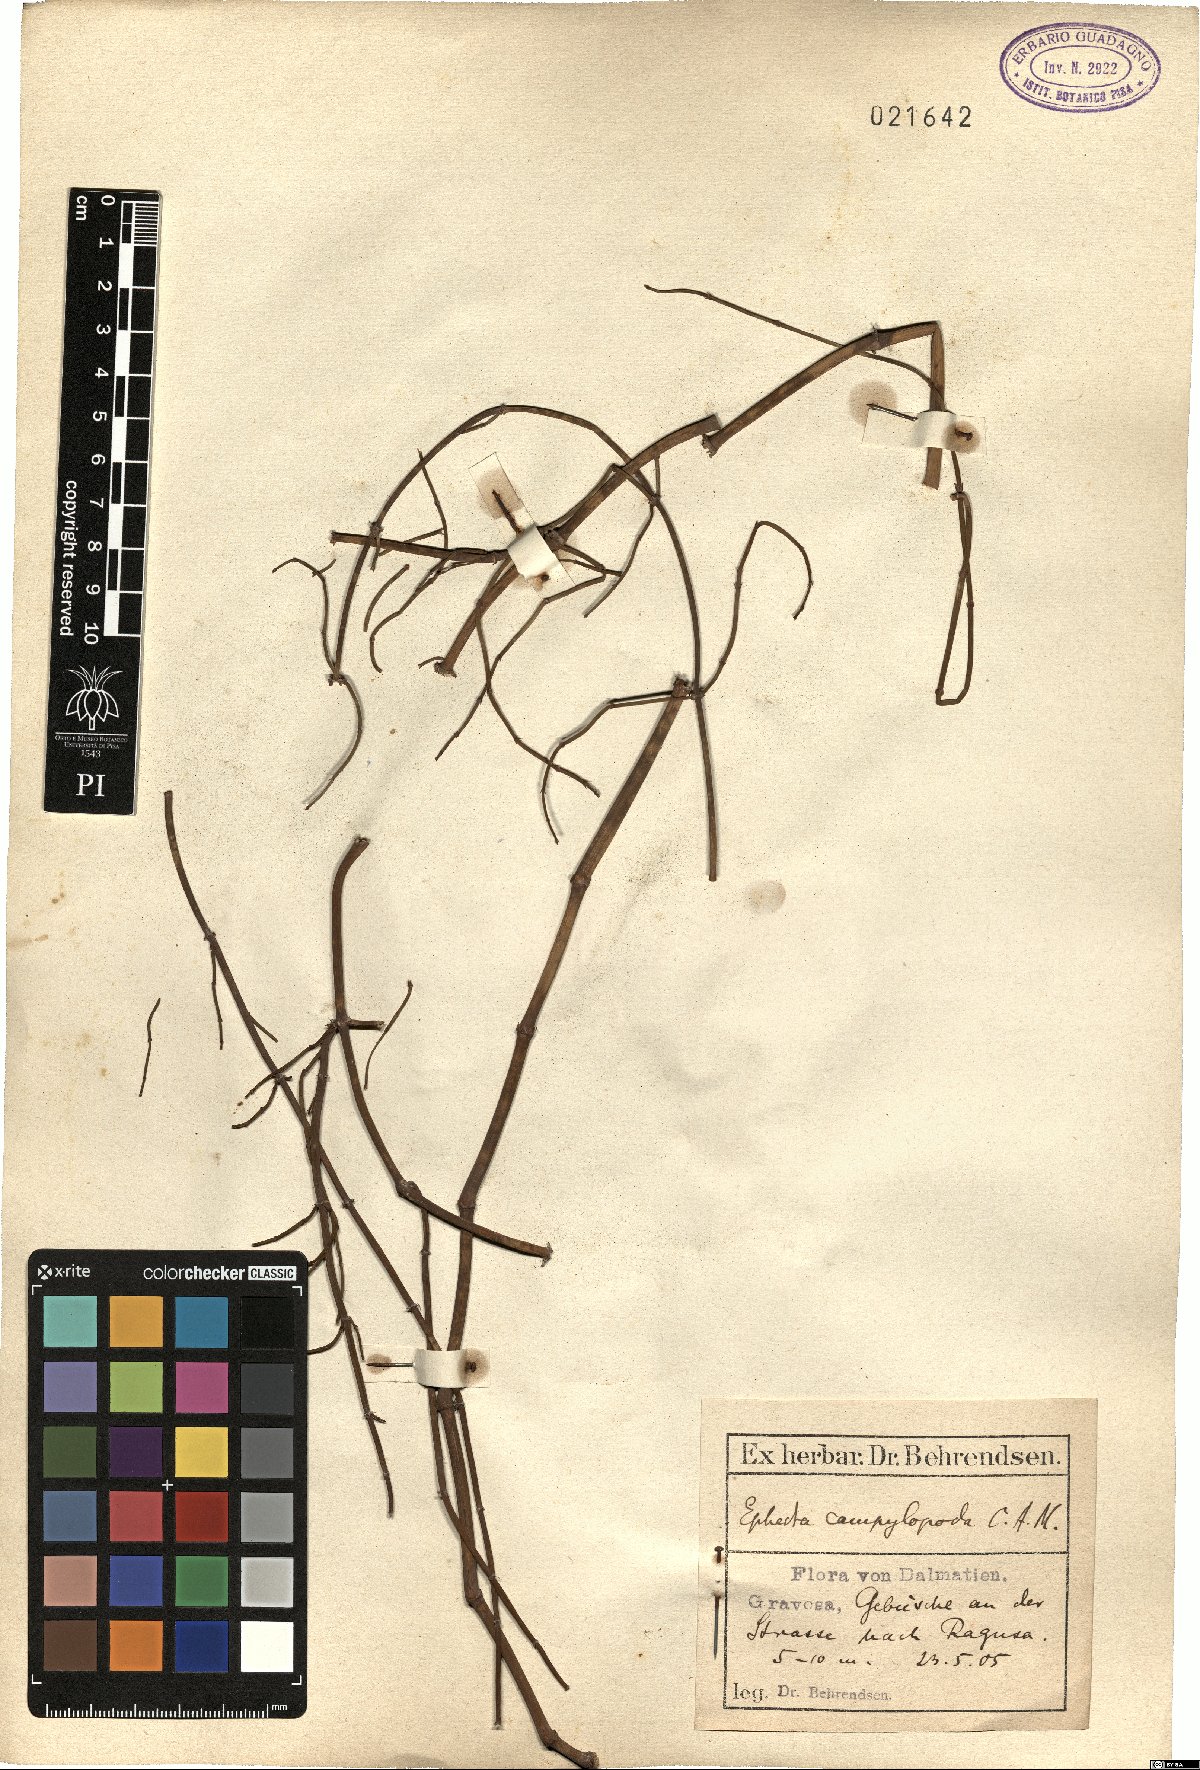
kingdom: Plantae
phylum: Tracheophyta
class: Gnetopsida
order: Ephedrales
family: Ephedraceae
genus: Ephedra
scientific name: Ephedra foeminea
